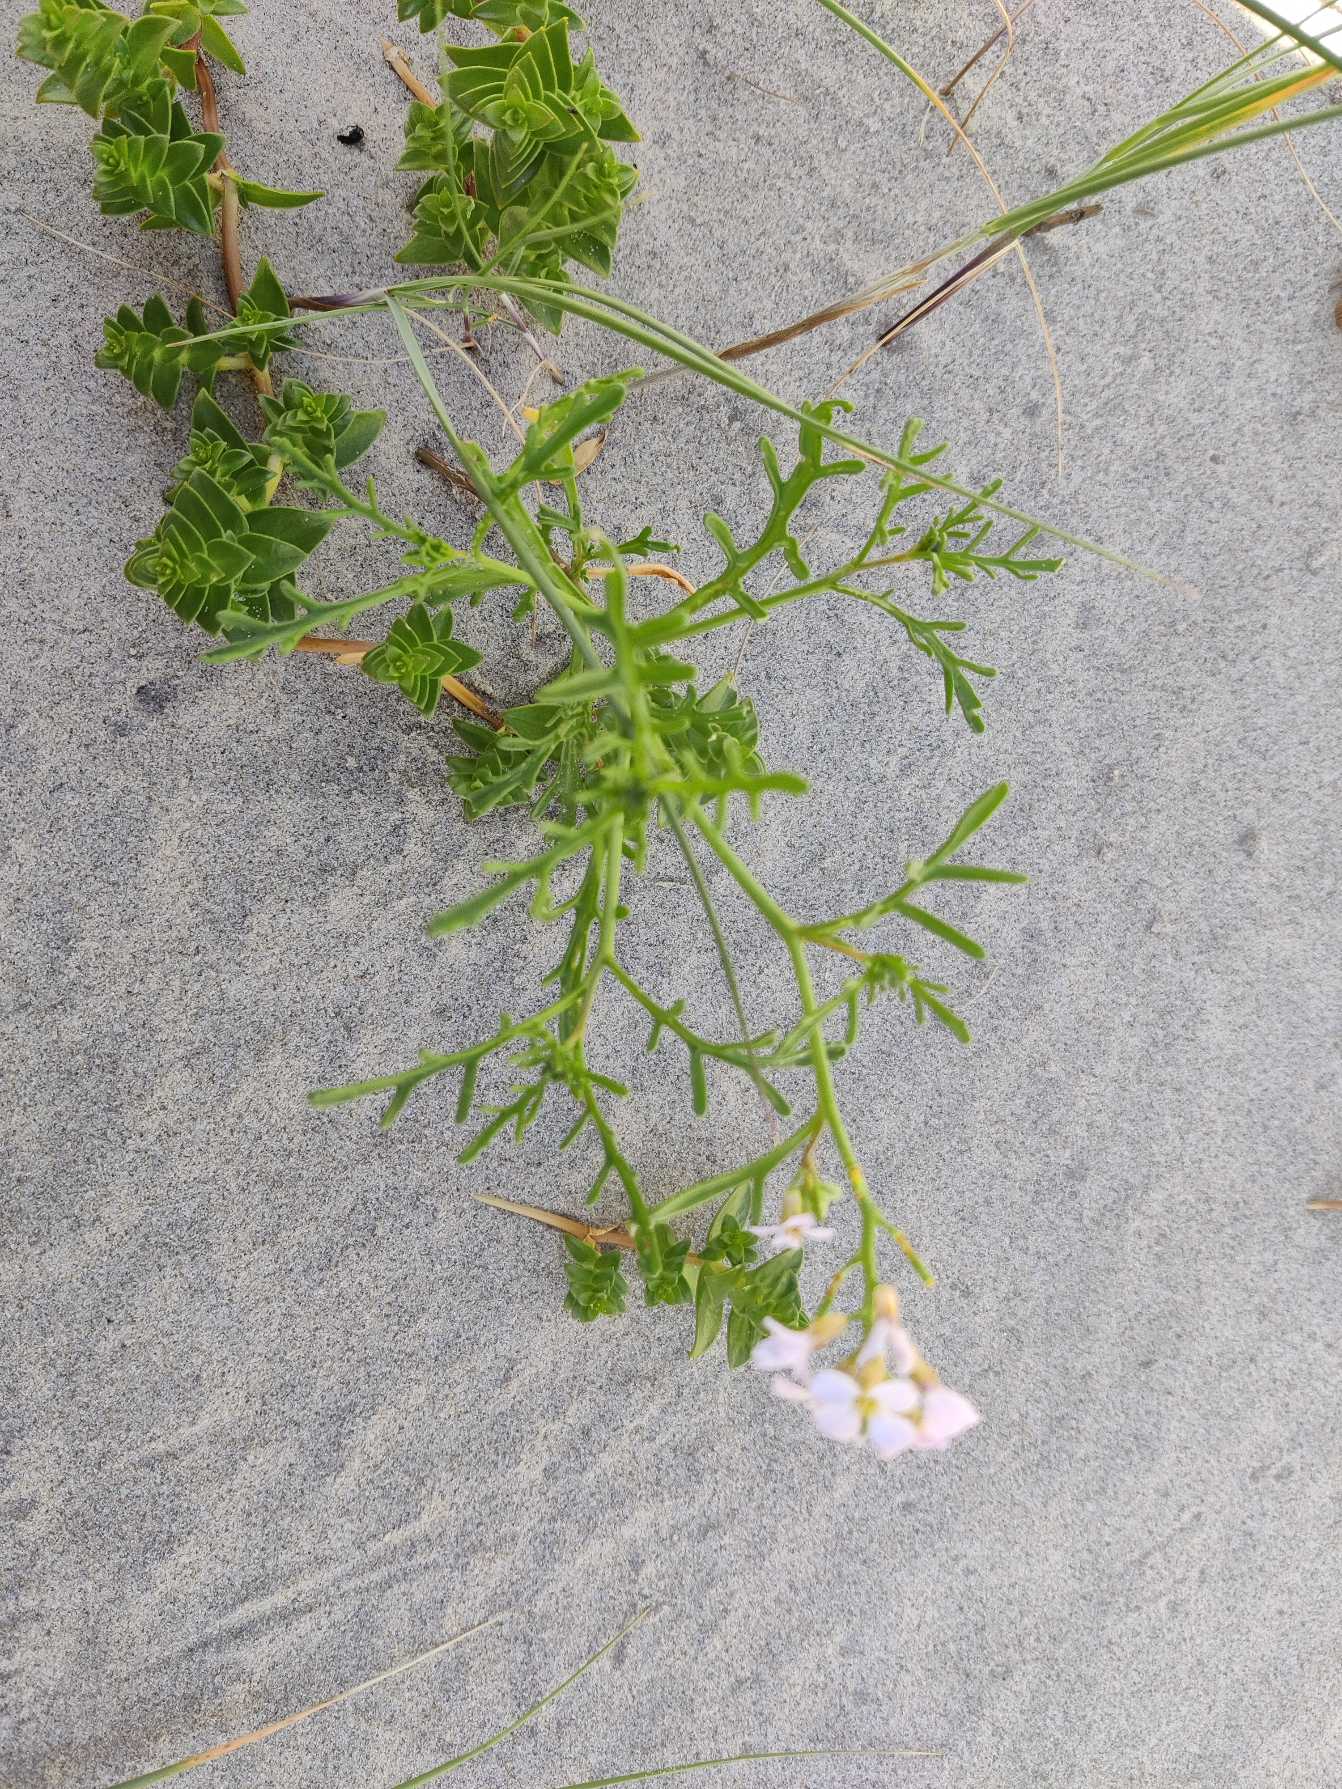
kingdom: Plantae
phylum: Tracheophyta
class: Magnoliopsida
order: Brassicales
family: Brassicaceae
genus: Cakile
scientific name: Cakile maritima
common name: Strandsennep
